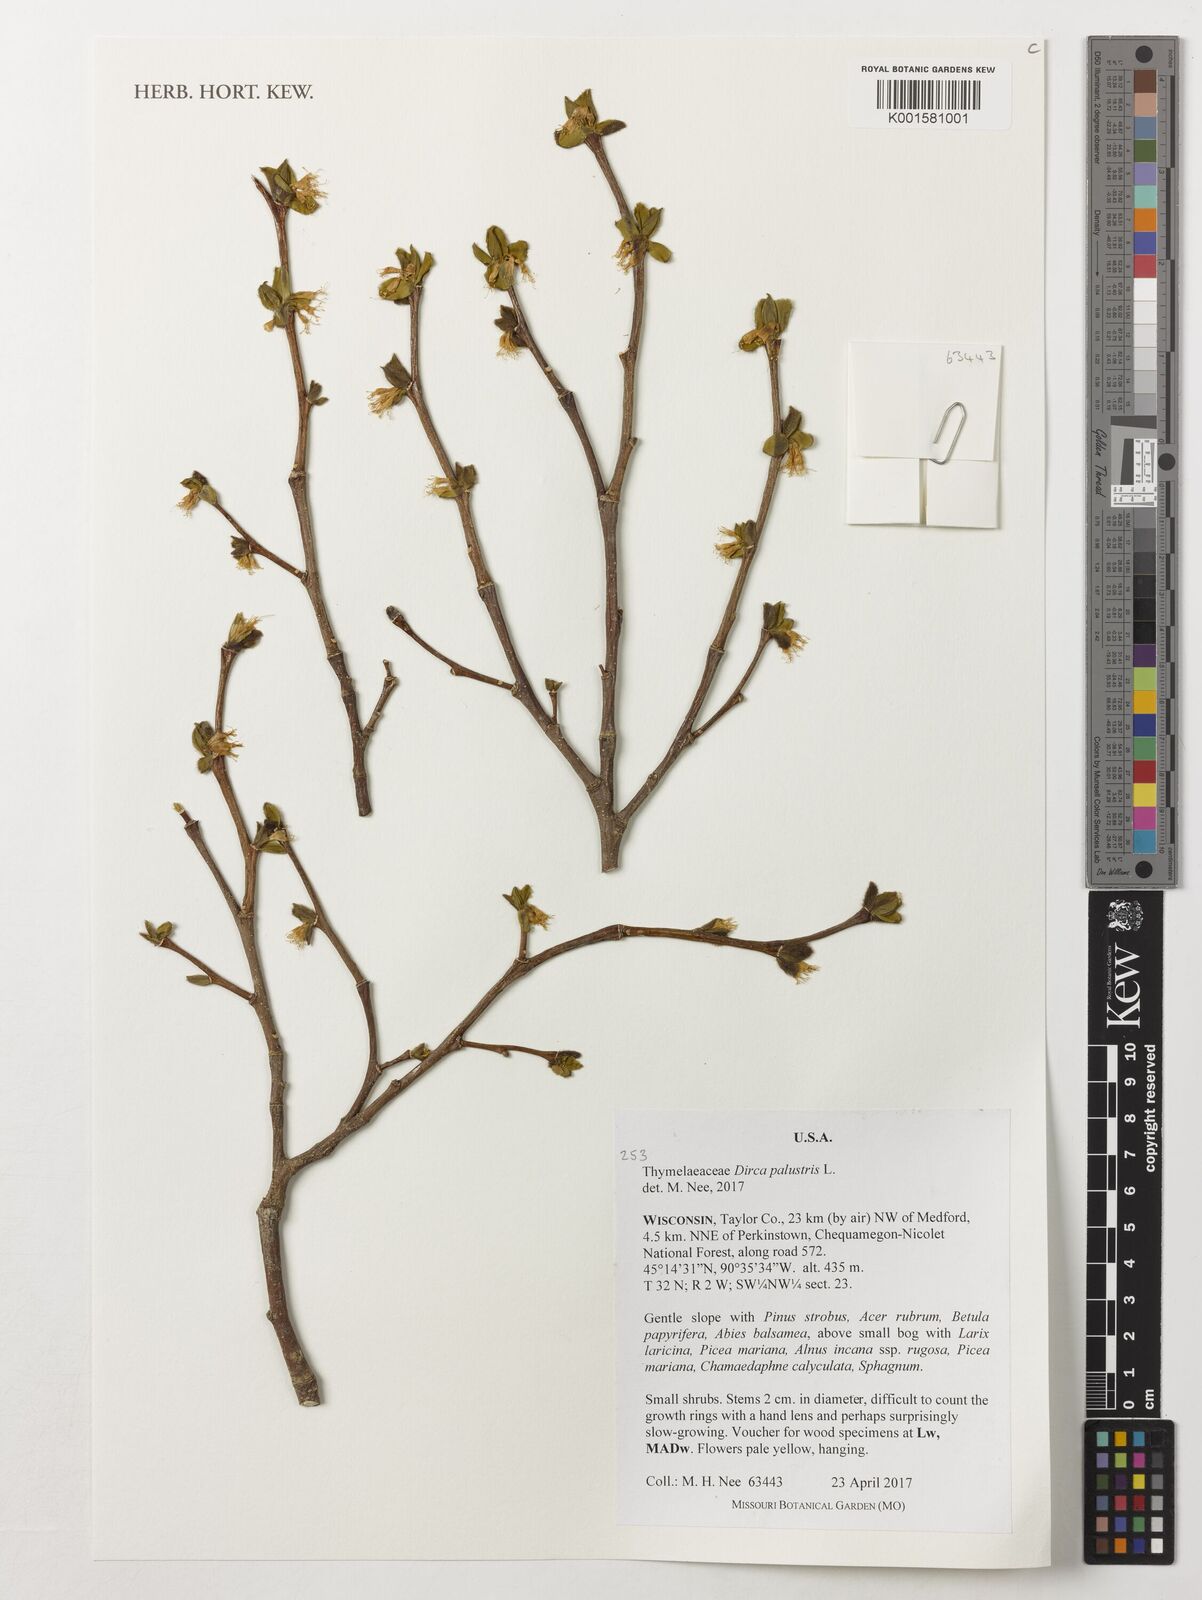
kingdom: Plantae
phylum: Tracheophyta
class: Magnoliopsida
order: Malvales
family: Thymelaeaceae
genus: Dirca
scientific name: Dirca palustris
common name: Leatherwood
